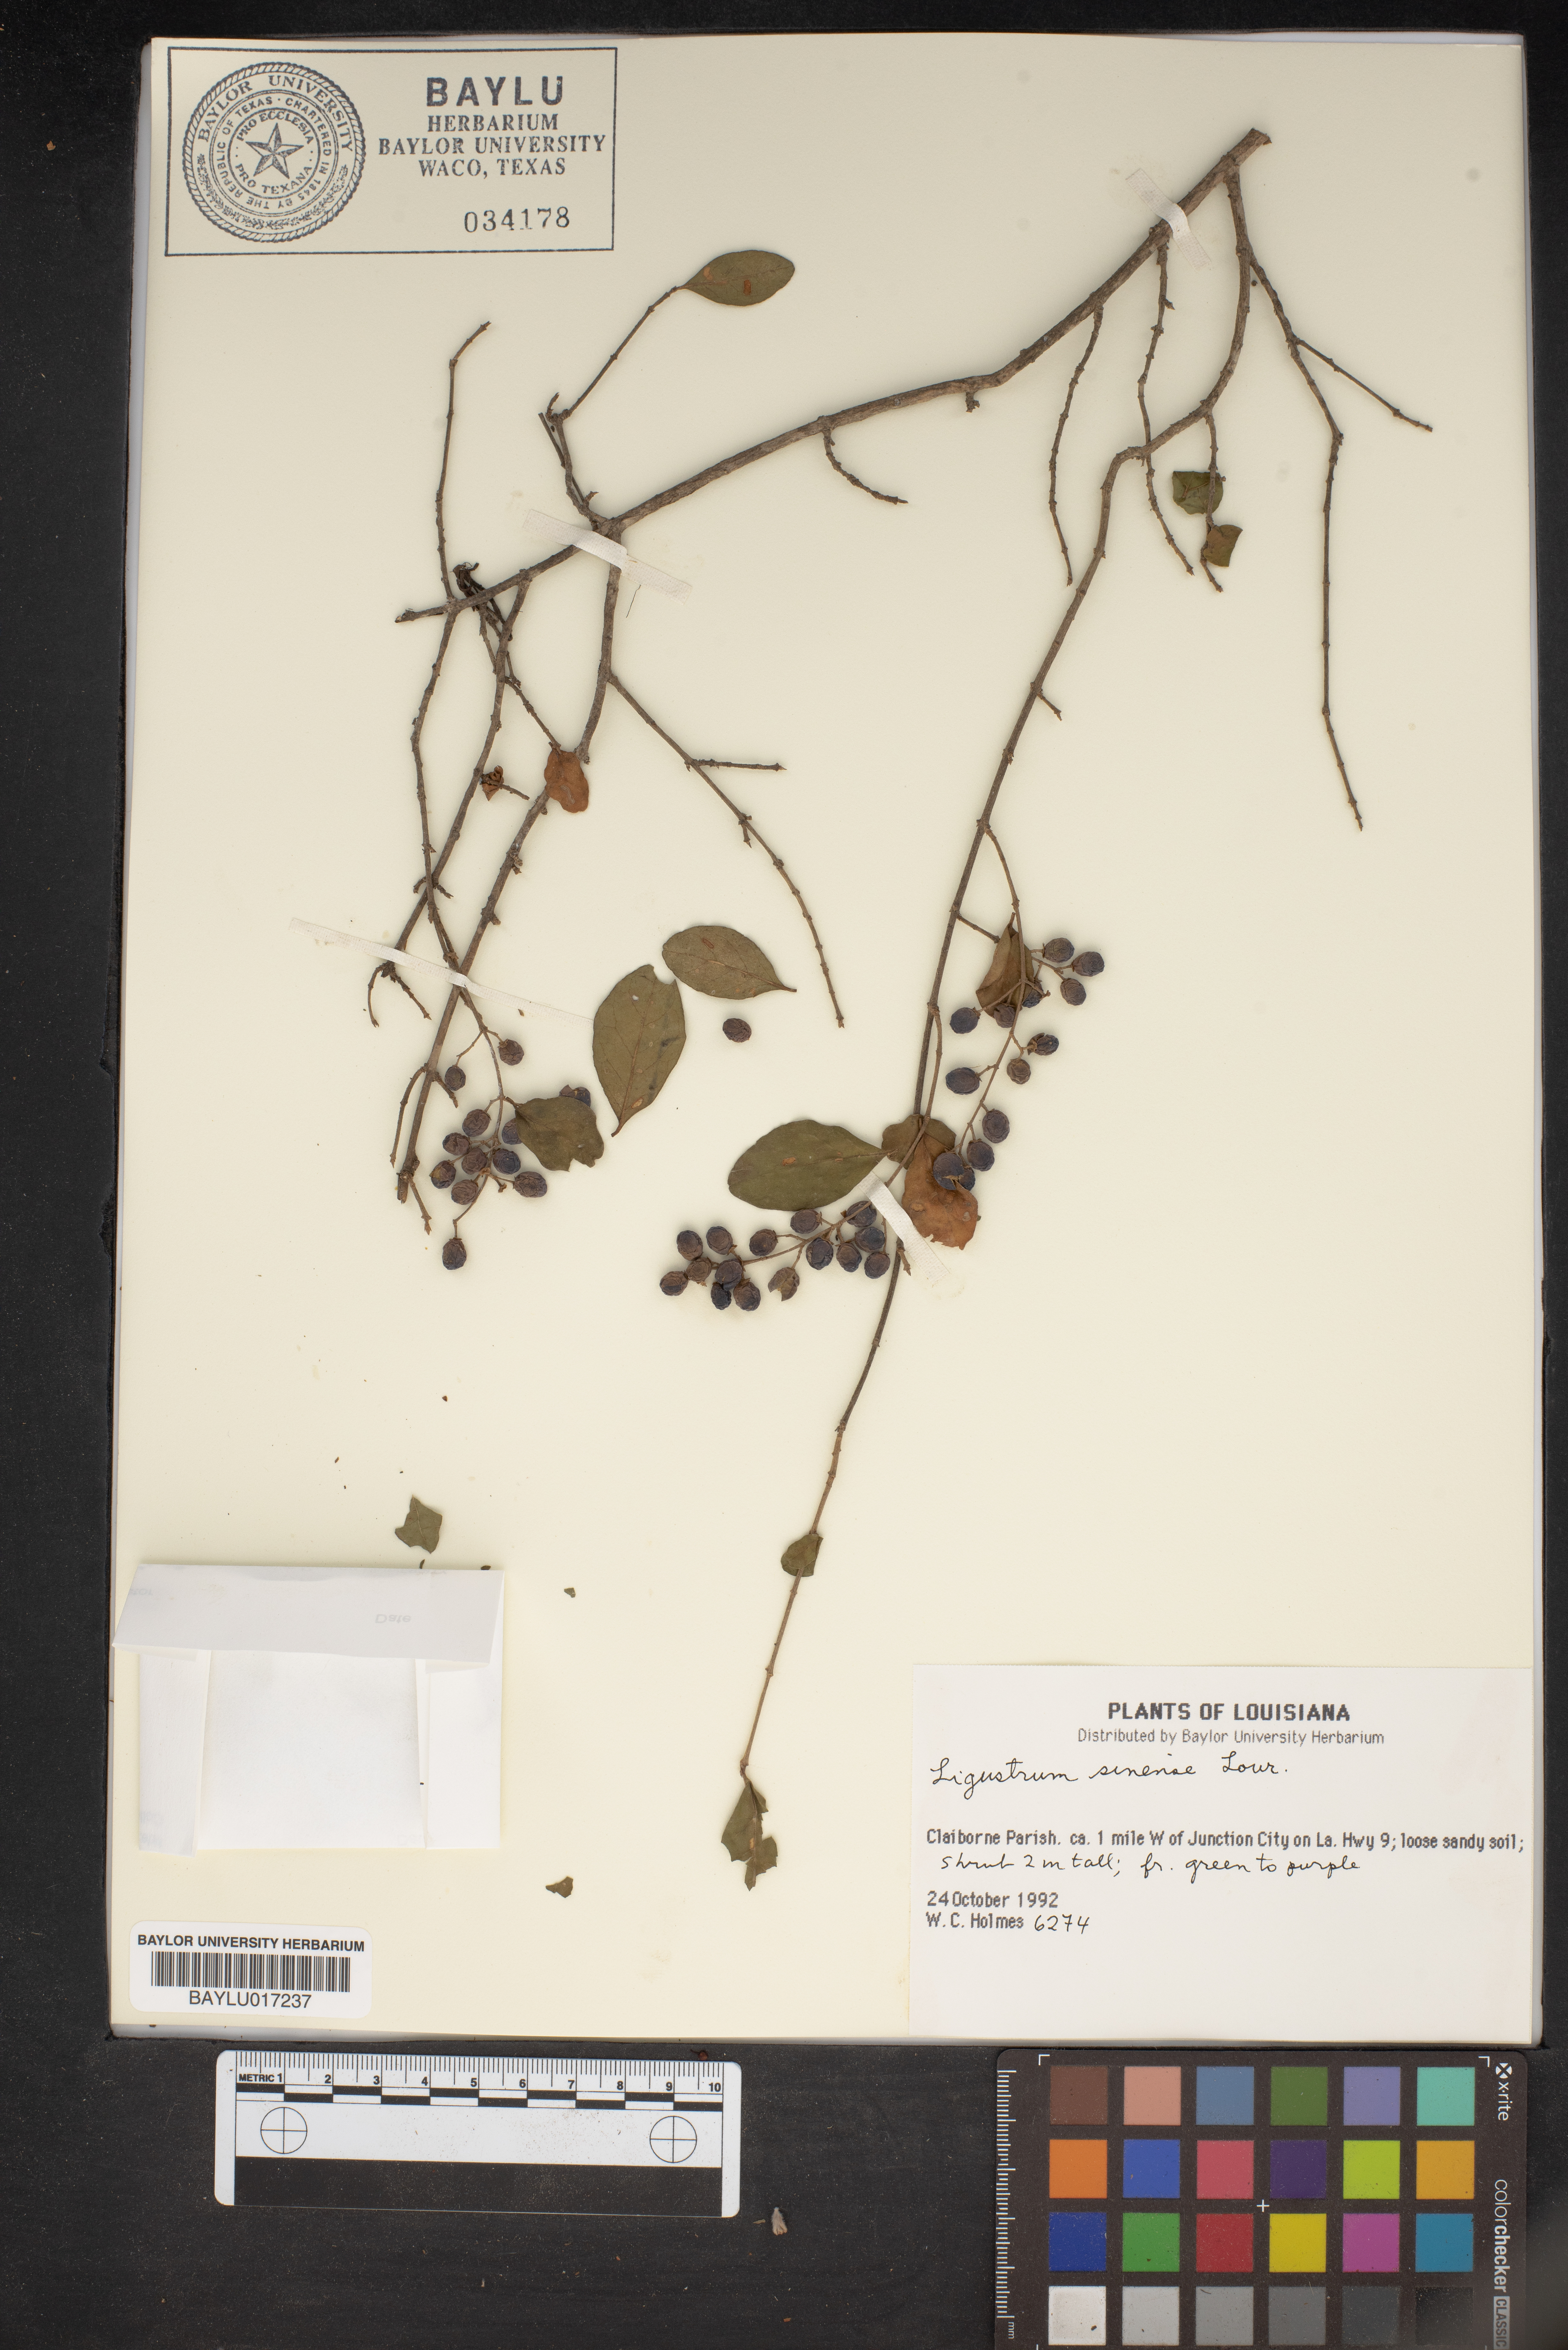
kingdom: Plantae
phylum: Tracheophyta
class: Magnoliopsida
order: Lamiales
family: Oleaceae
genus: Ligustrum
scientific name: Ligustrum sinense
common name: Chinese privet
